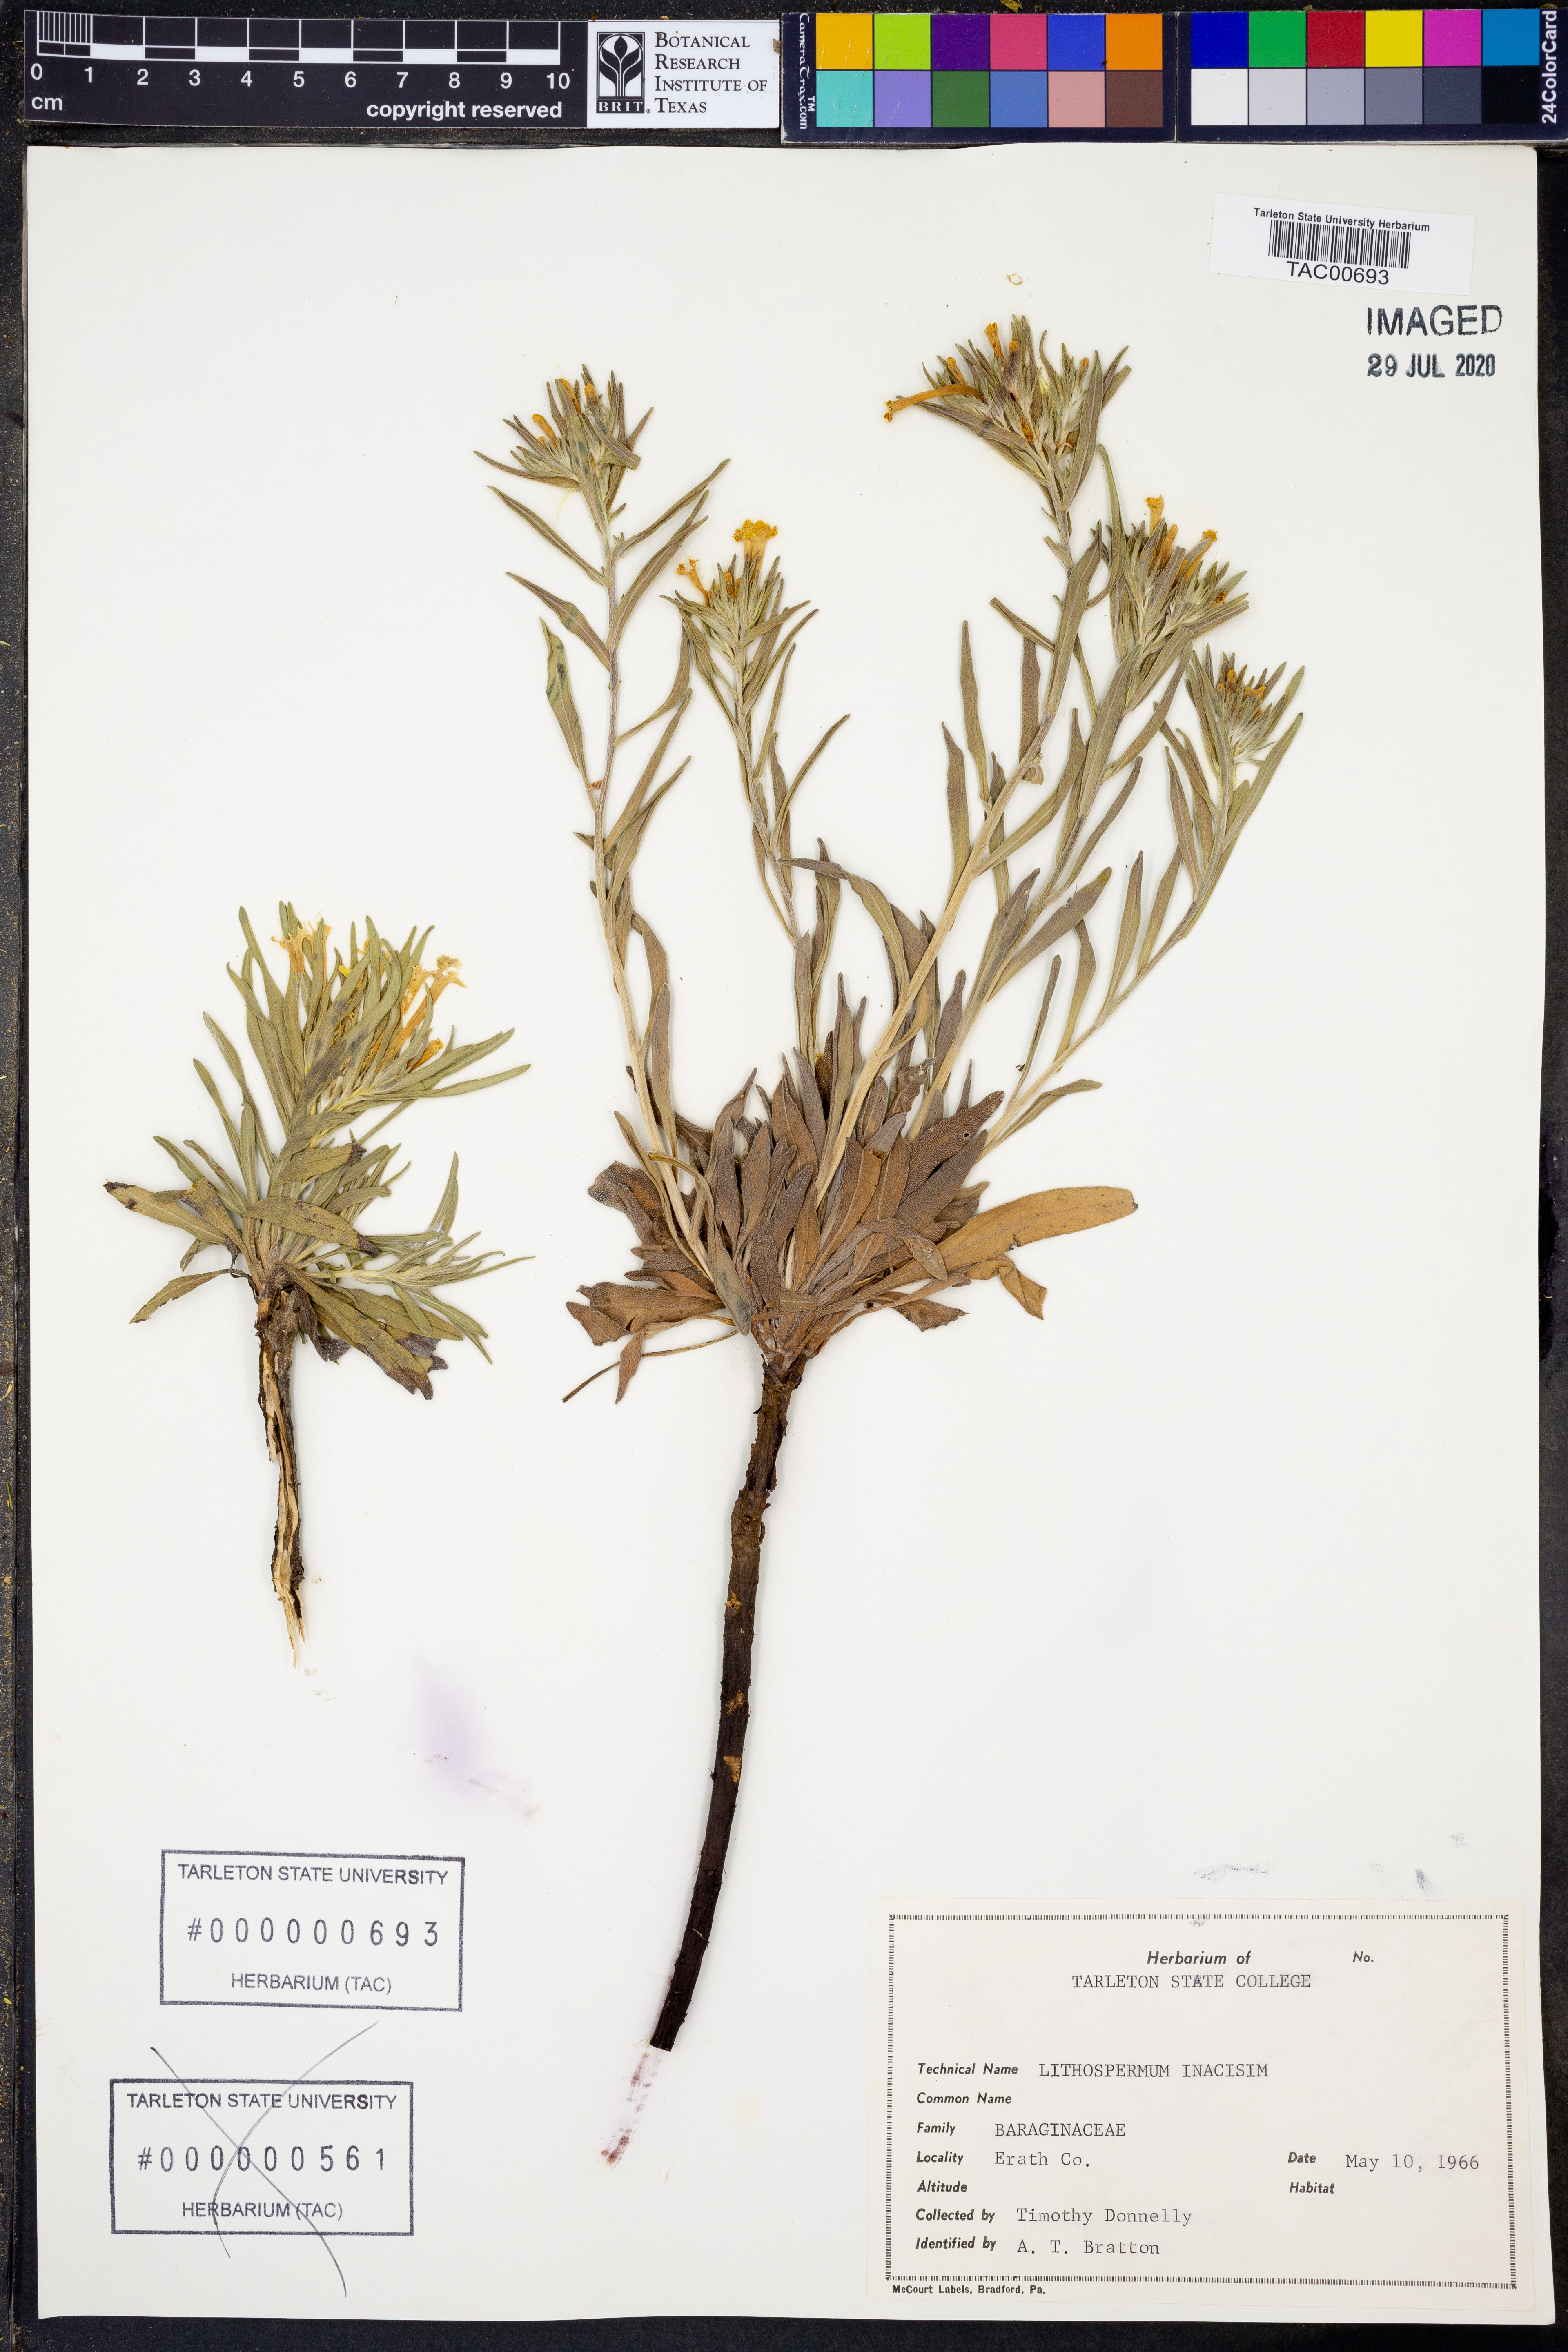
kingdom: Plantae
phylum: Tracheophyta
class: Magnoliopsida
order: Boraginales
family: Boraginaceae
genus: Lithospermum
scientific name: Lithospermum incisum
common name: Fringed gromwell
